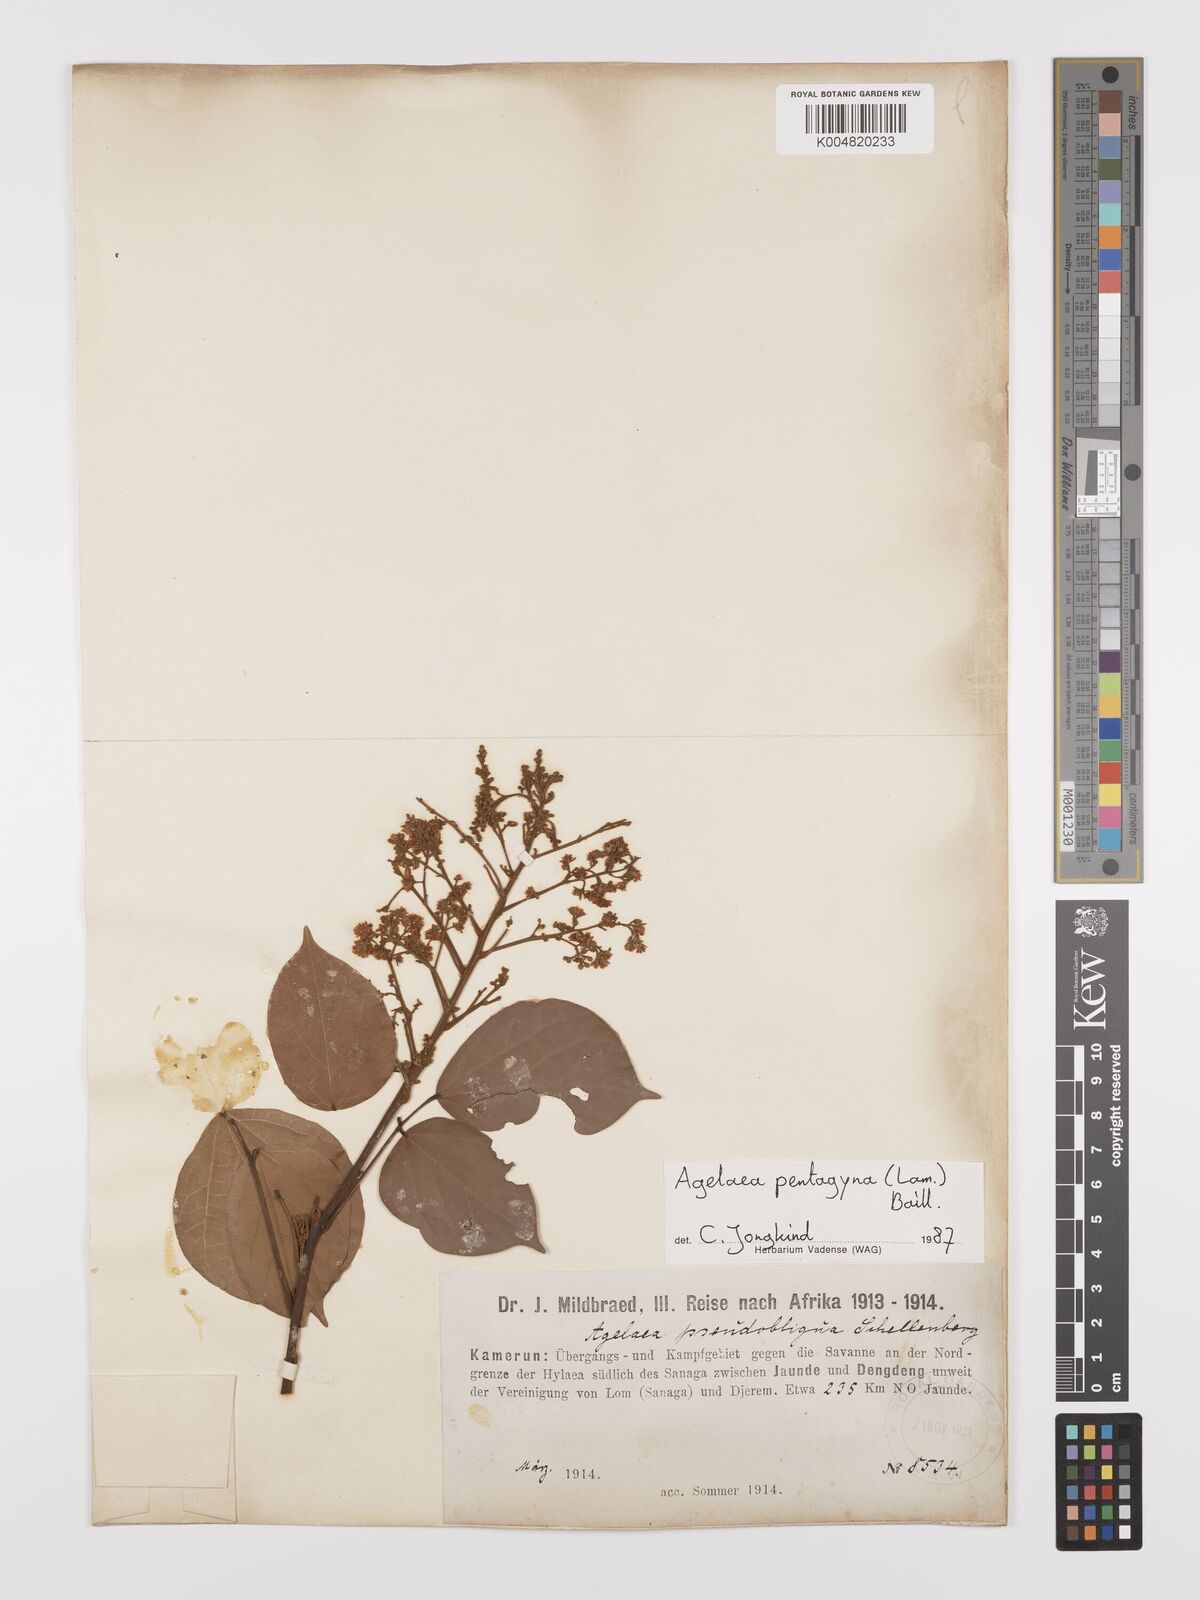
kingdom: Plantae
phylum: Tracheophyta
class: Magnoliopsida
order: Oxalidales
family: Connaraceae
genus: Agelaea
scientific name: Agelaea pentagyna
